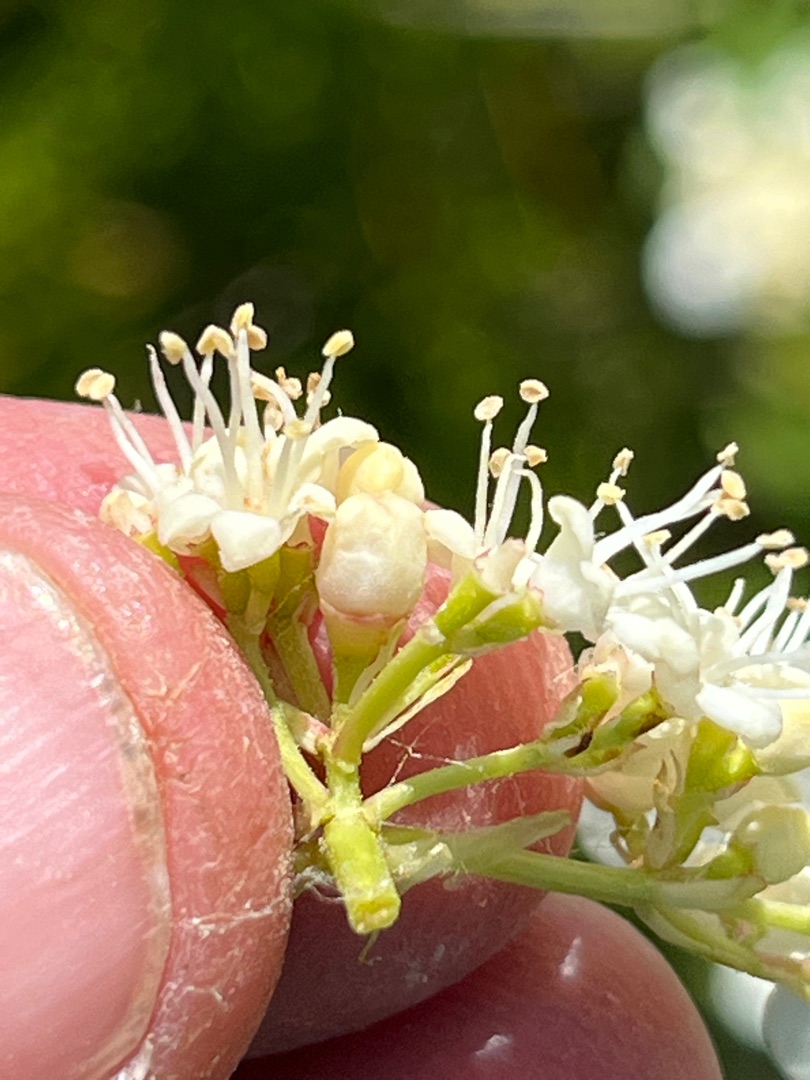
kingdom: Animalia
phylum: Arthropoda
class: Insecta
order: Diptera
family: Cecidomyiidae
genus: Contarinia
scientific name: Contarinia viburnorum
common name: Kvalkvedgalmyg
